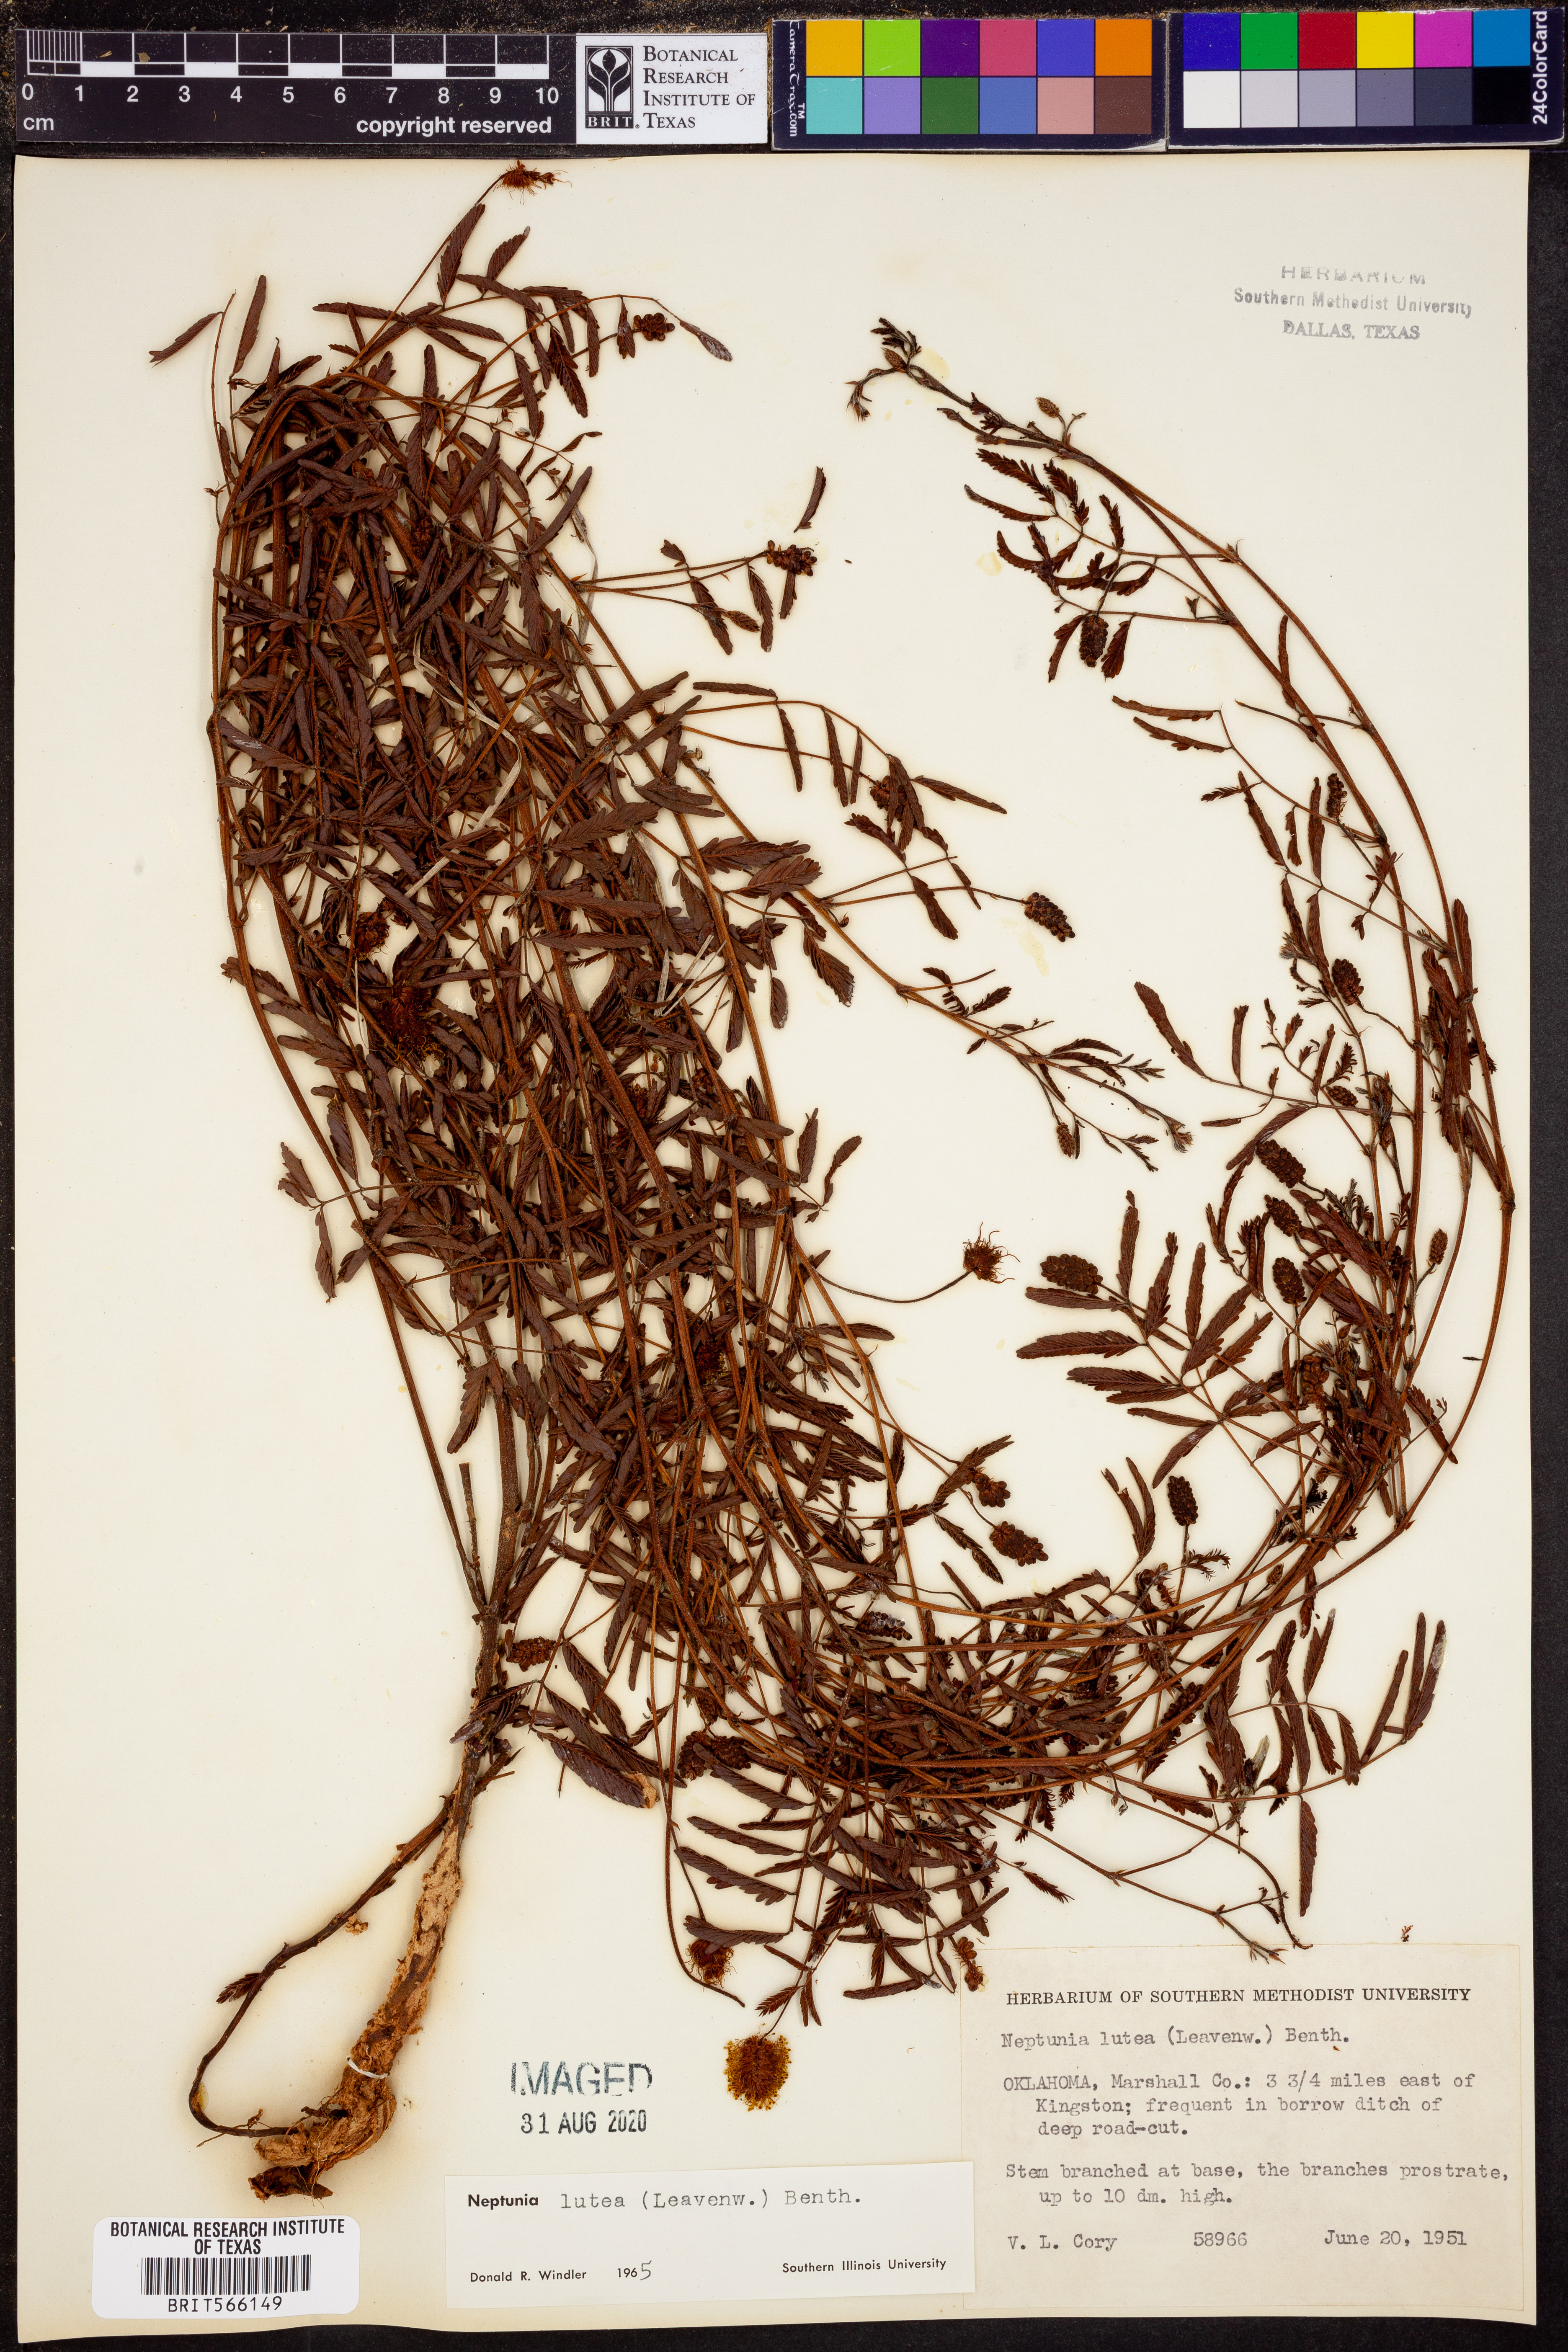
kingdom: Plantae
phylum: Tracheophyta
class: Magnoliopsida
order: Fabales
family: Fabaceae
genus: Neptunia
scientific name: Neptunia lutea
